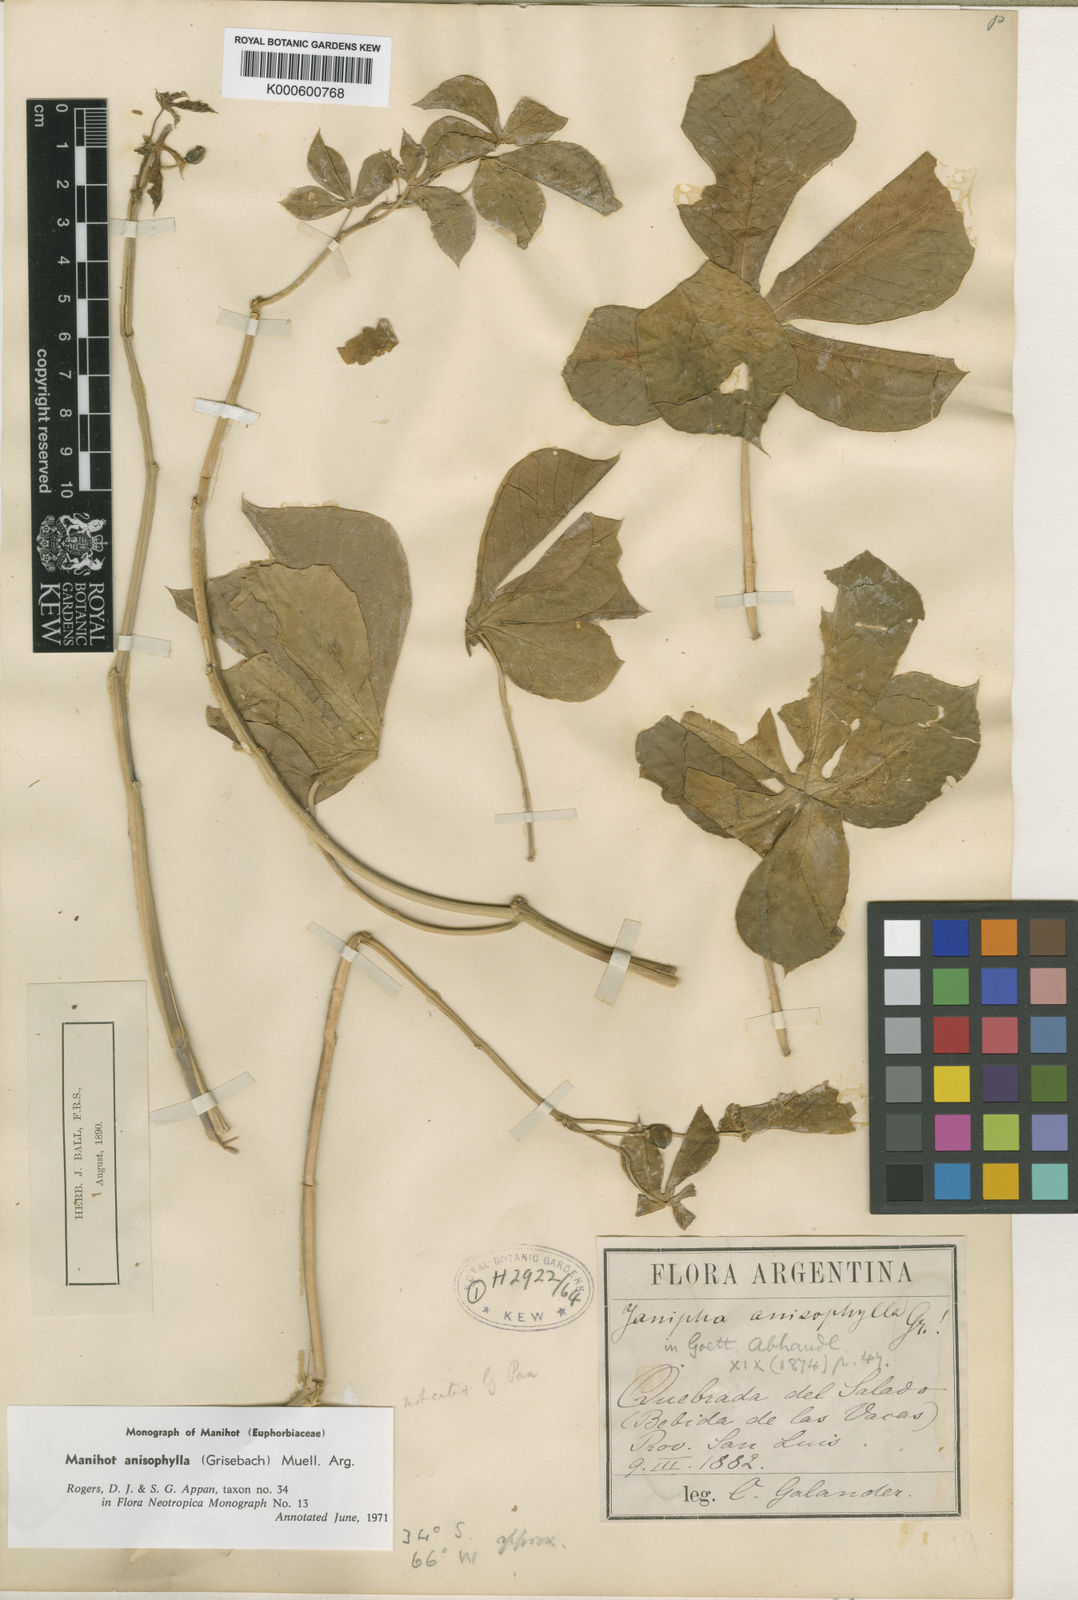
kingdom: Plantae
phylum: Tracheophyta
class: Magnoliopsida
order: Malpighiales
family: Euphorbiaceae
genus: Manihot
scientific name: Manihot
